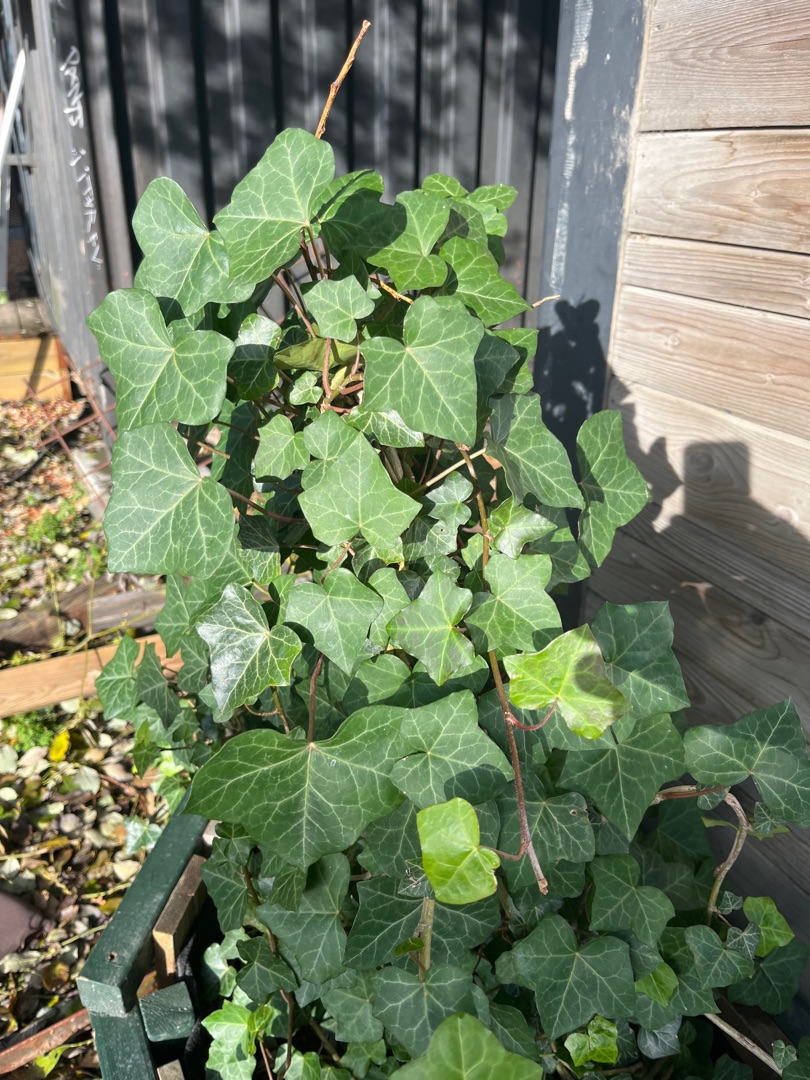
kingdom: Plantae
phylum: Tracheophyta
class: Magnoliopsida
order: Apiales
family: Araliaceae
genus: Hedera
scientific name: Hedera hibernica
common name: Irsk vedbend
